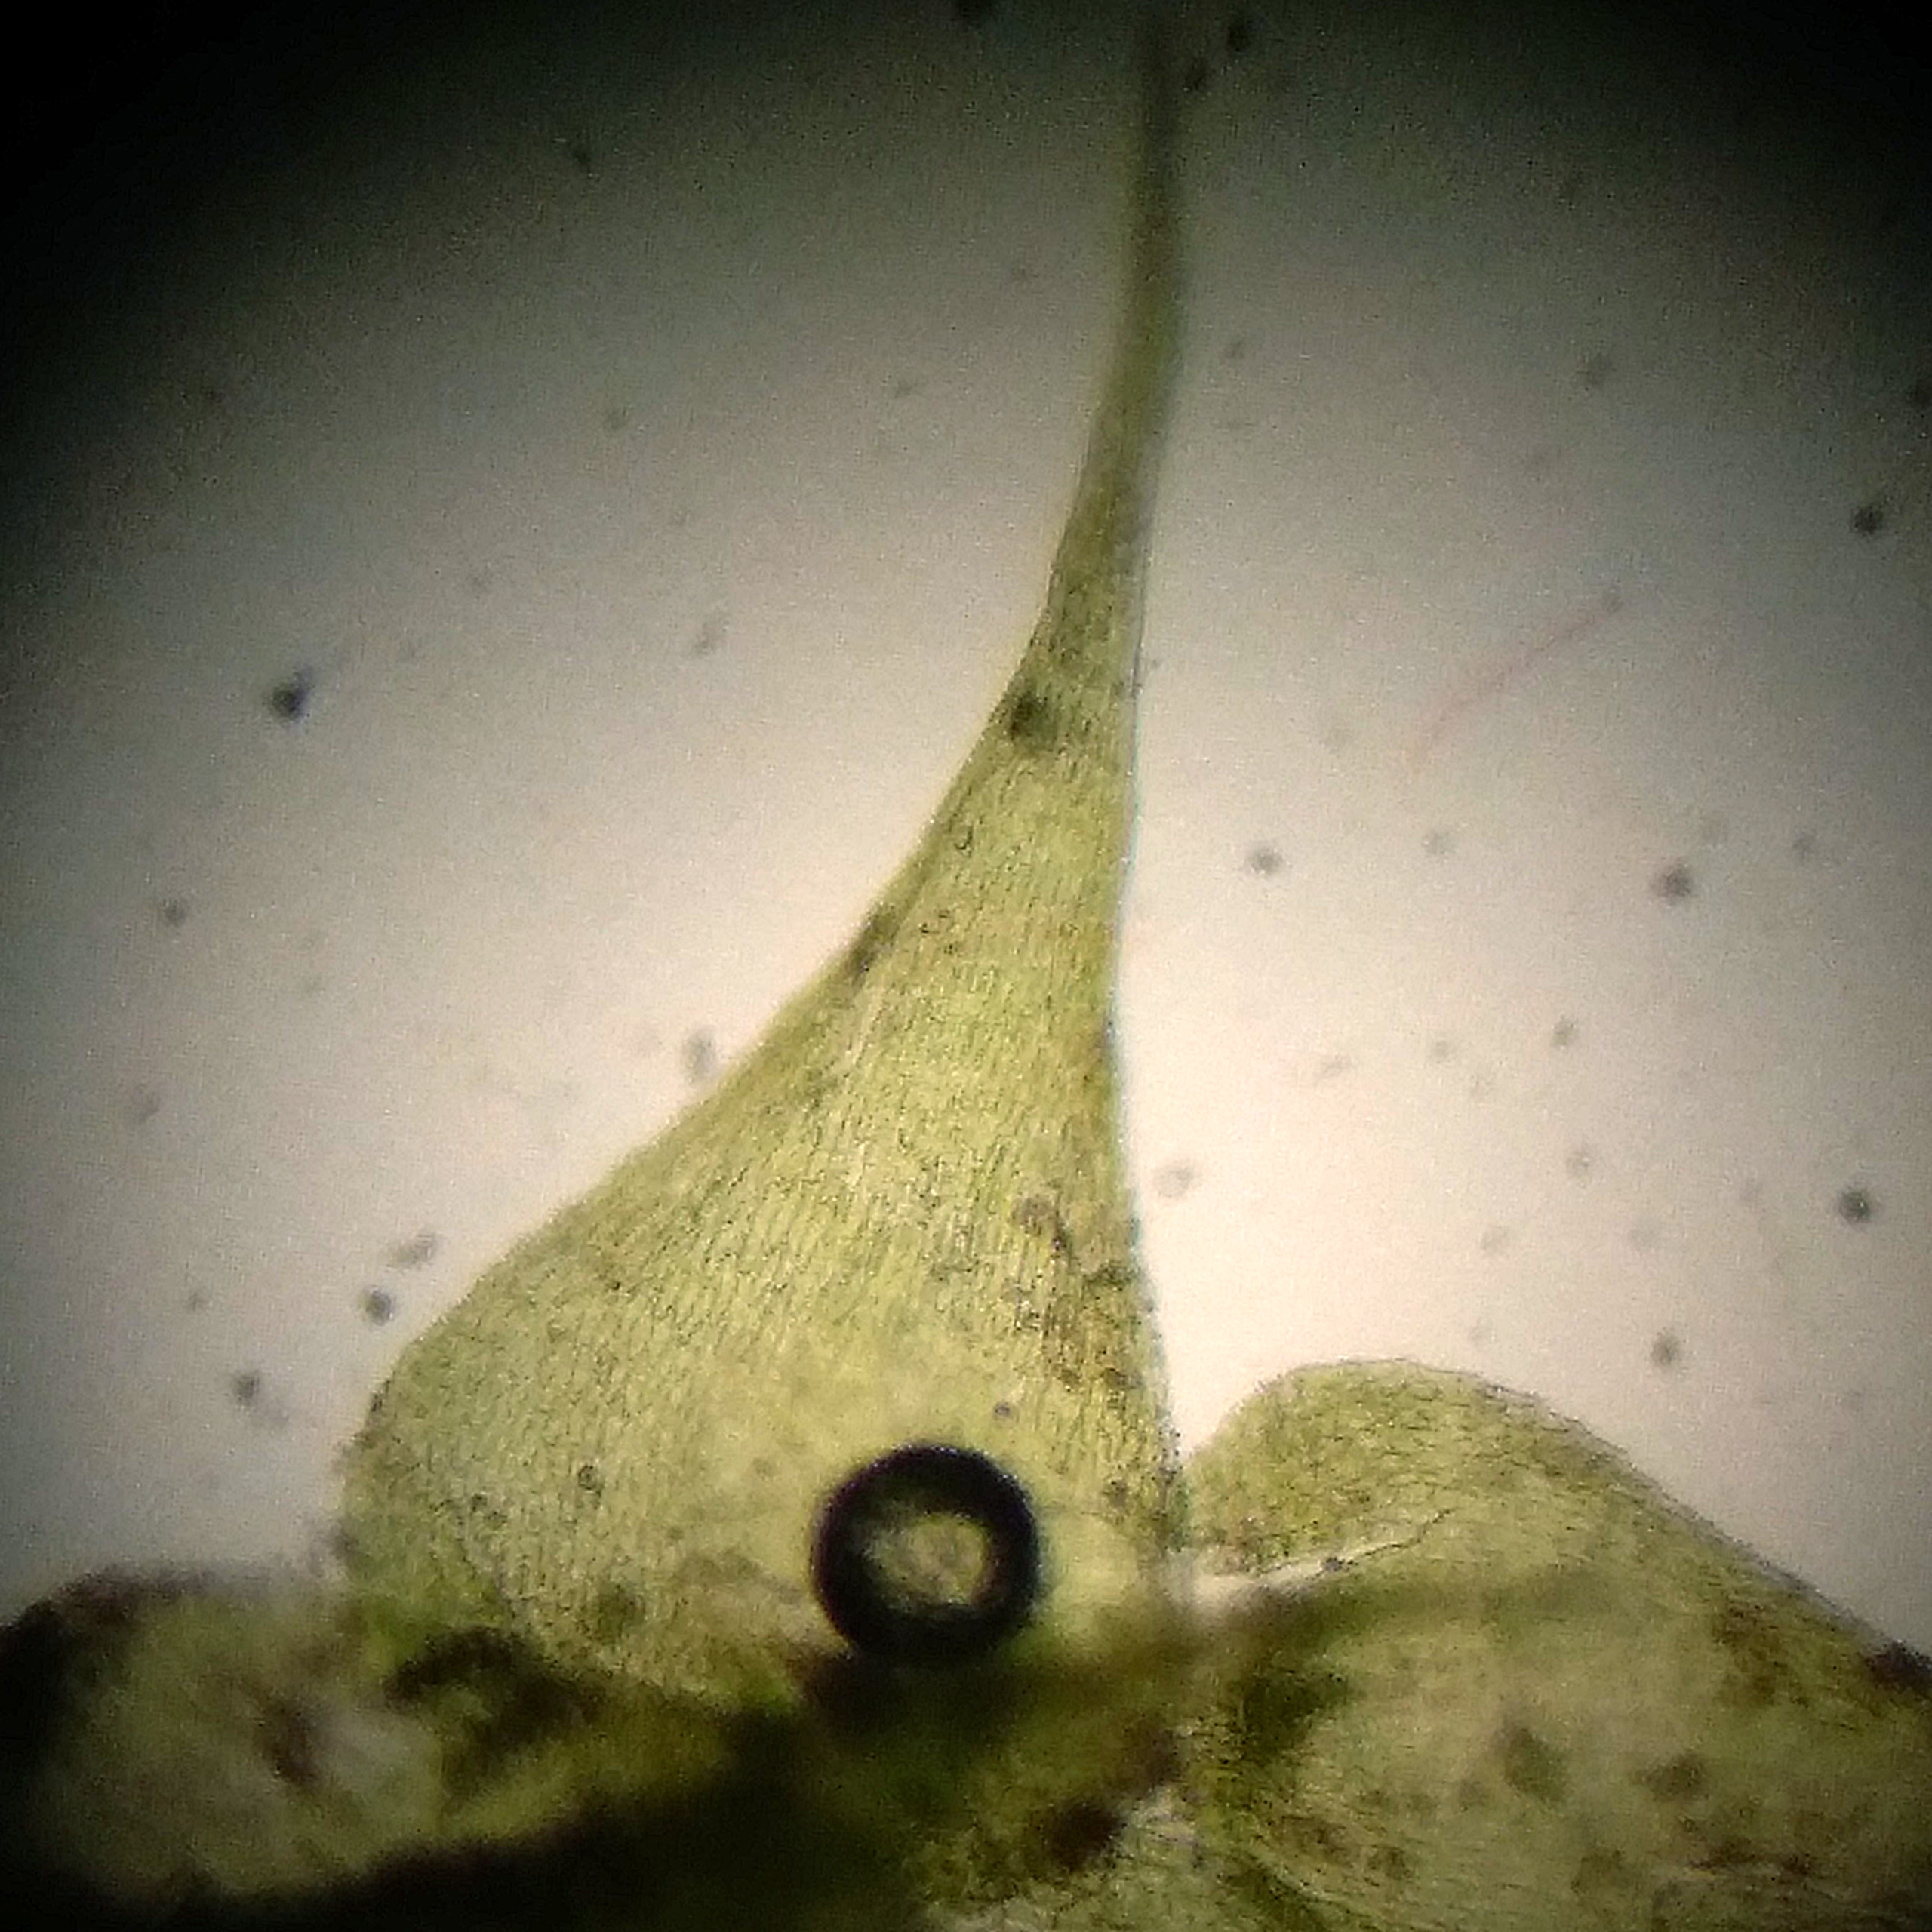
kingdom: Plantae
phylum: Bryophyta
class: Bryopsida
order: Hypnales
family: Amblystegiaceae
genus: Campylophyllopsis
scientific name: Campylophyllopsis calcarea
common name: Kalk-guldstjernemos
